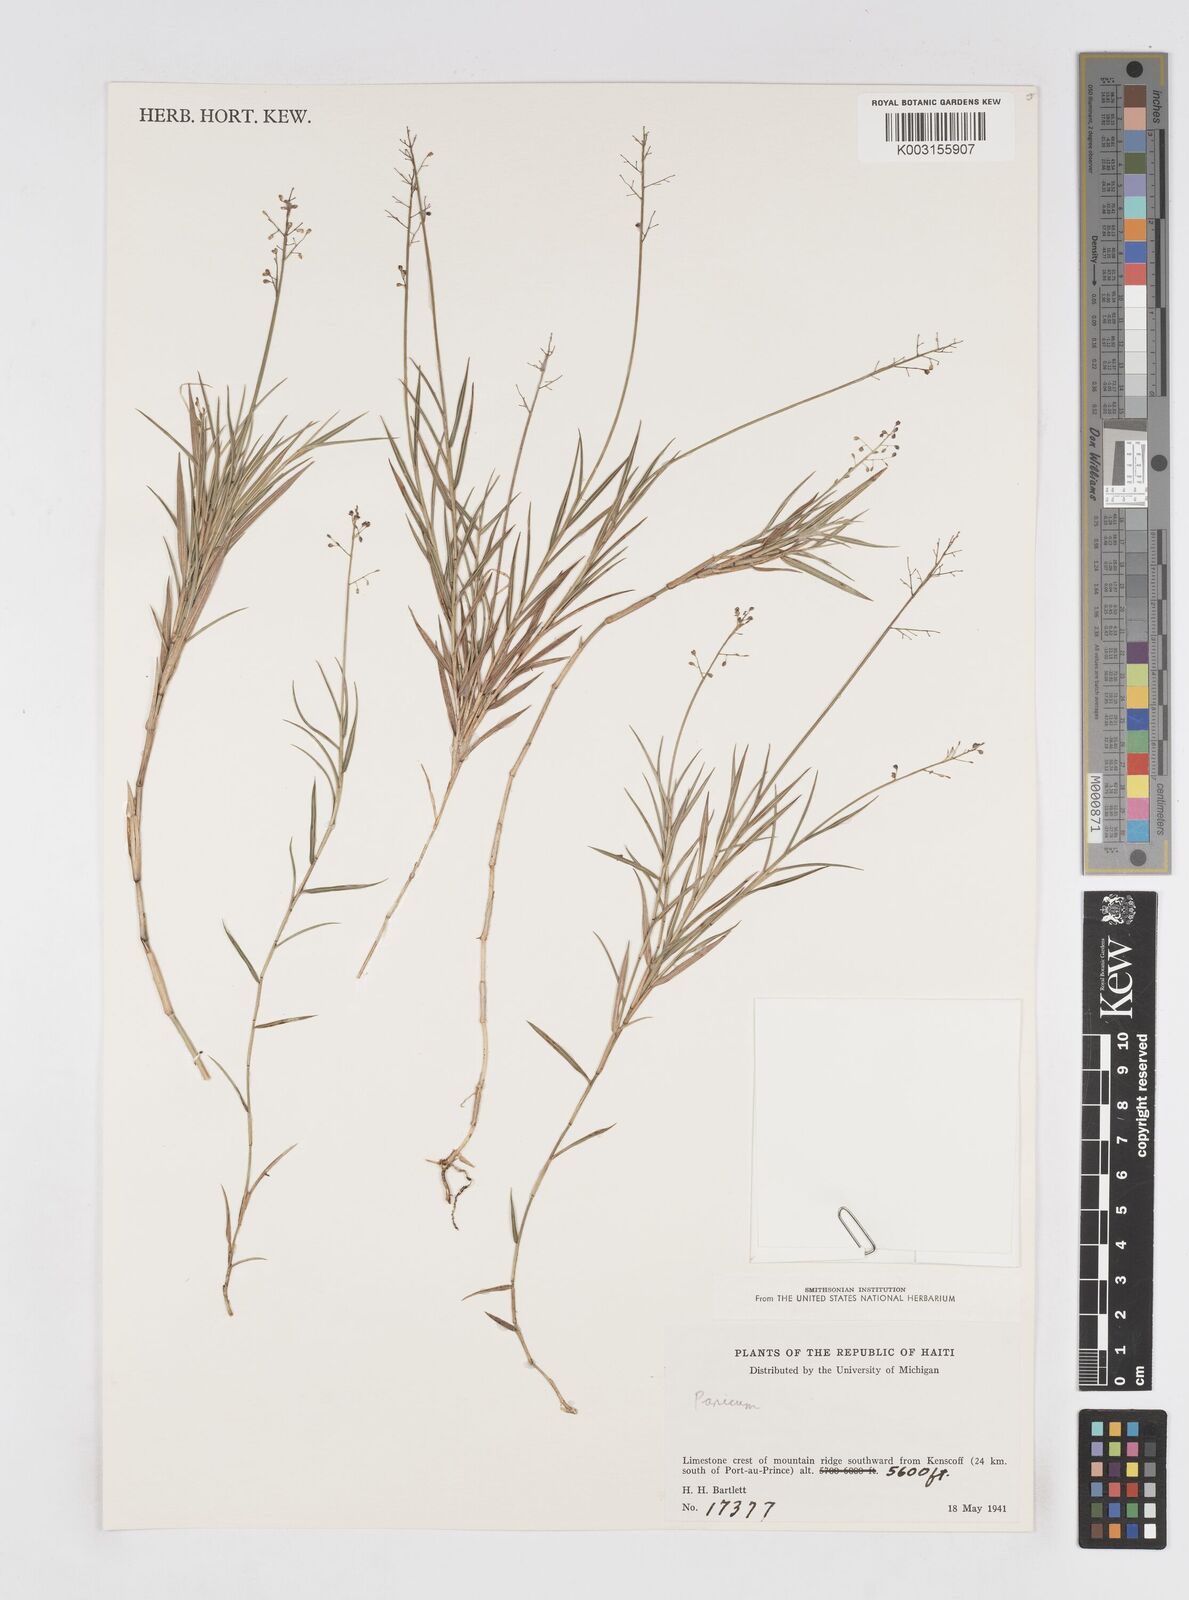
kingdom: Plantae
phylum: Tracheophyta
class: Liliopsida
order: Poales
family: Poaceae
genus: Isachne
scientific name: Isachne rigidifolia
